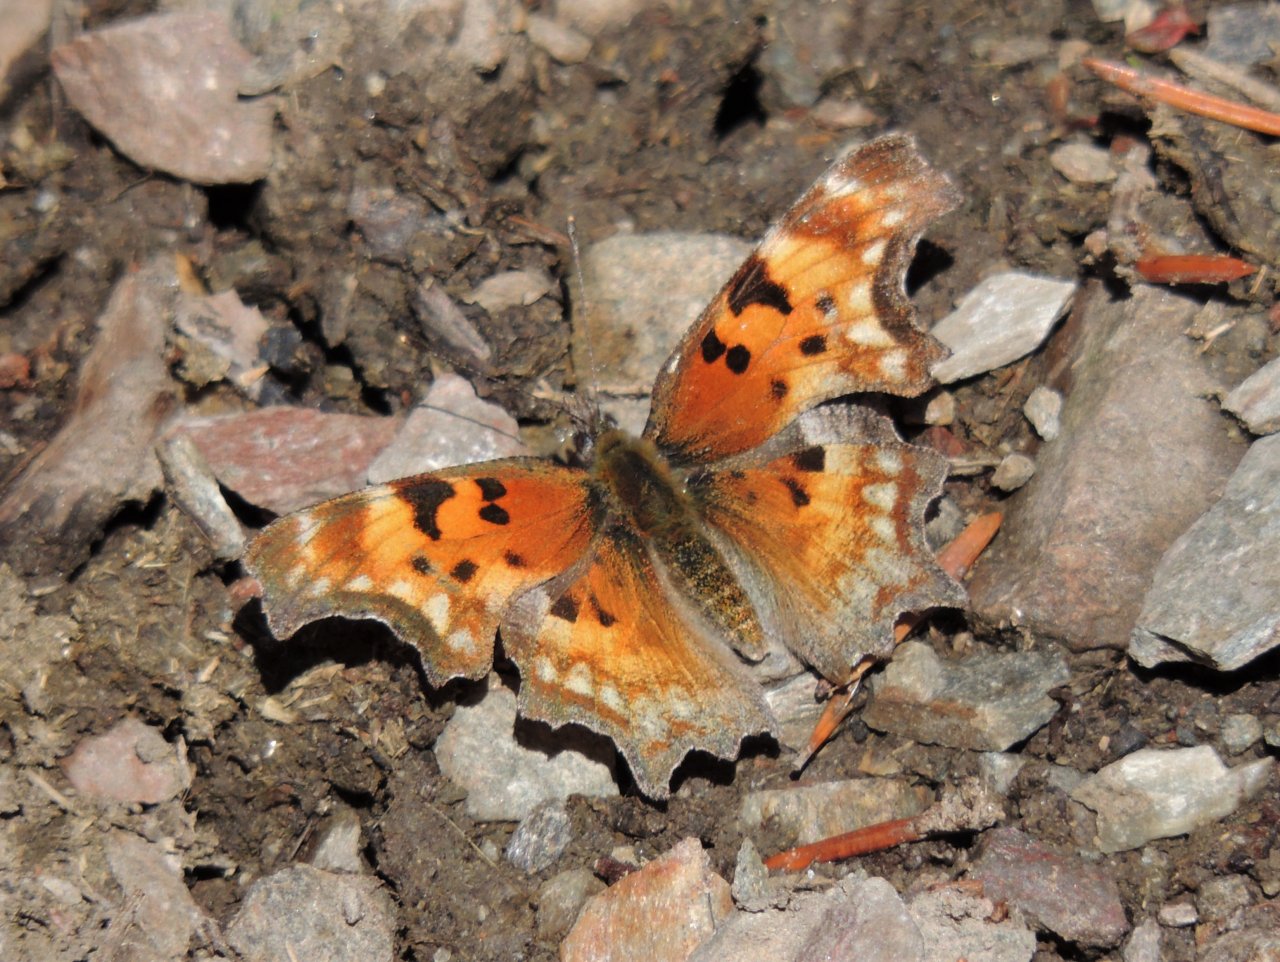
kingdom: Animalia
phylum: Arthropoda
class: Insecta
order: Lepidoptera
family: Nymphalidae
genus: Polygonia
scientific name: Polygonia gracilis
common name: Hoary Comma
